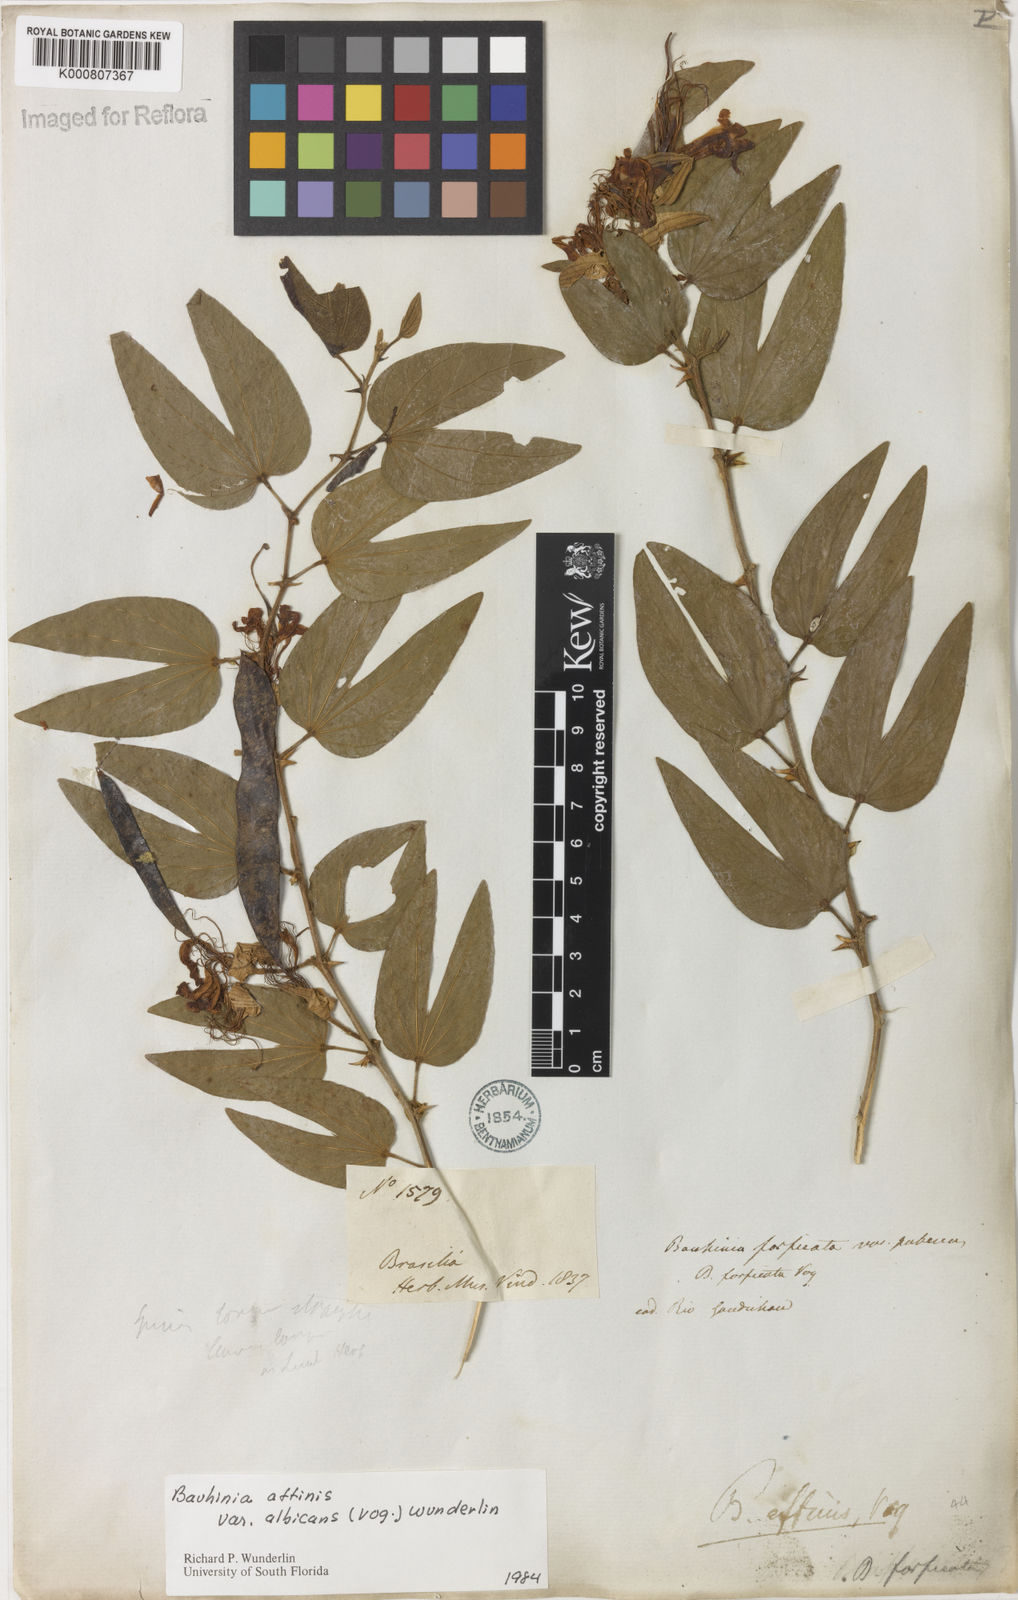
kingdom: Plantae
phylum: Tracheophyta
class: Magnoliopsida
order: Fabales
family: Fabaceae
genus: Bauhinia
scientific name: Bauhinia affinis
